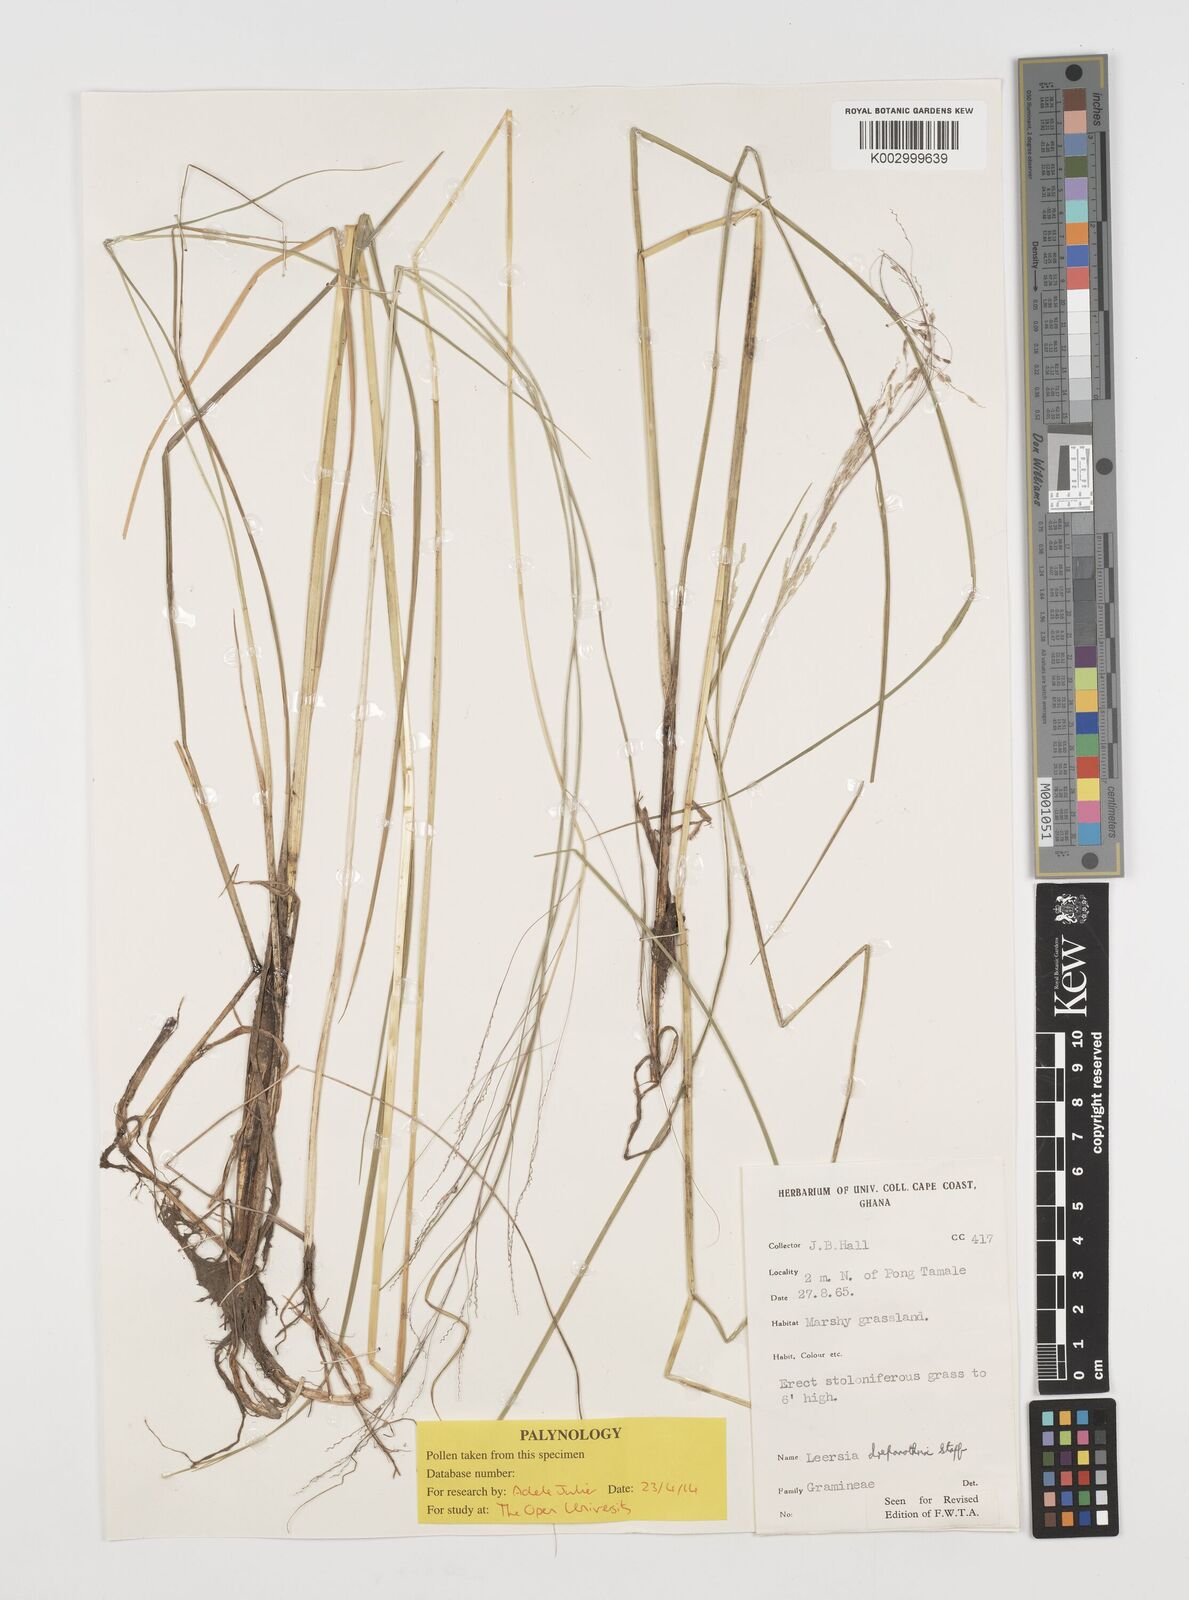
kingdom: Plantae
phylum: Tracheophyta
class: Liliopsida
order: Poales
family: Poaceae
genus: Leersia
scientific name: Leersia drepanothrix
